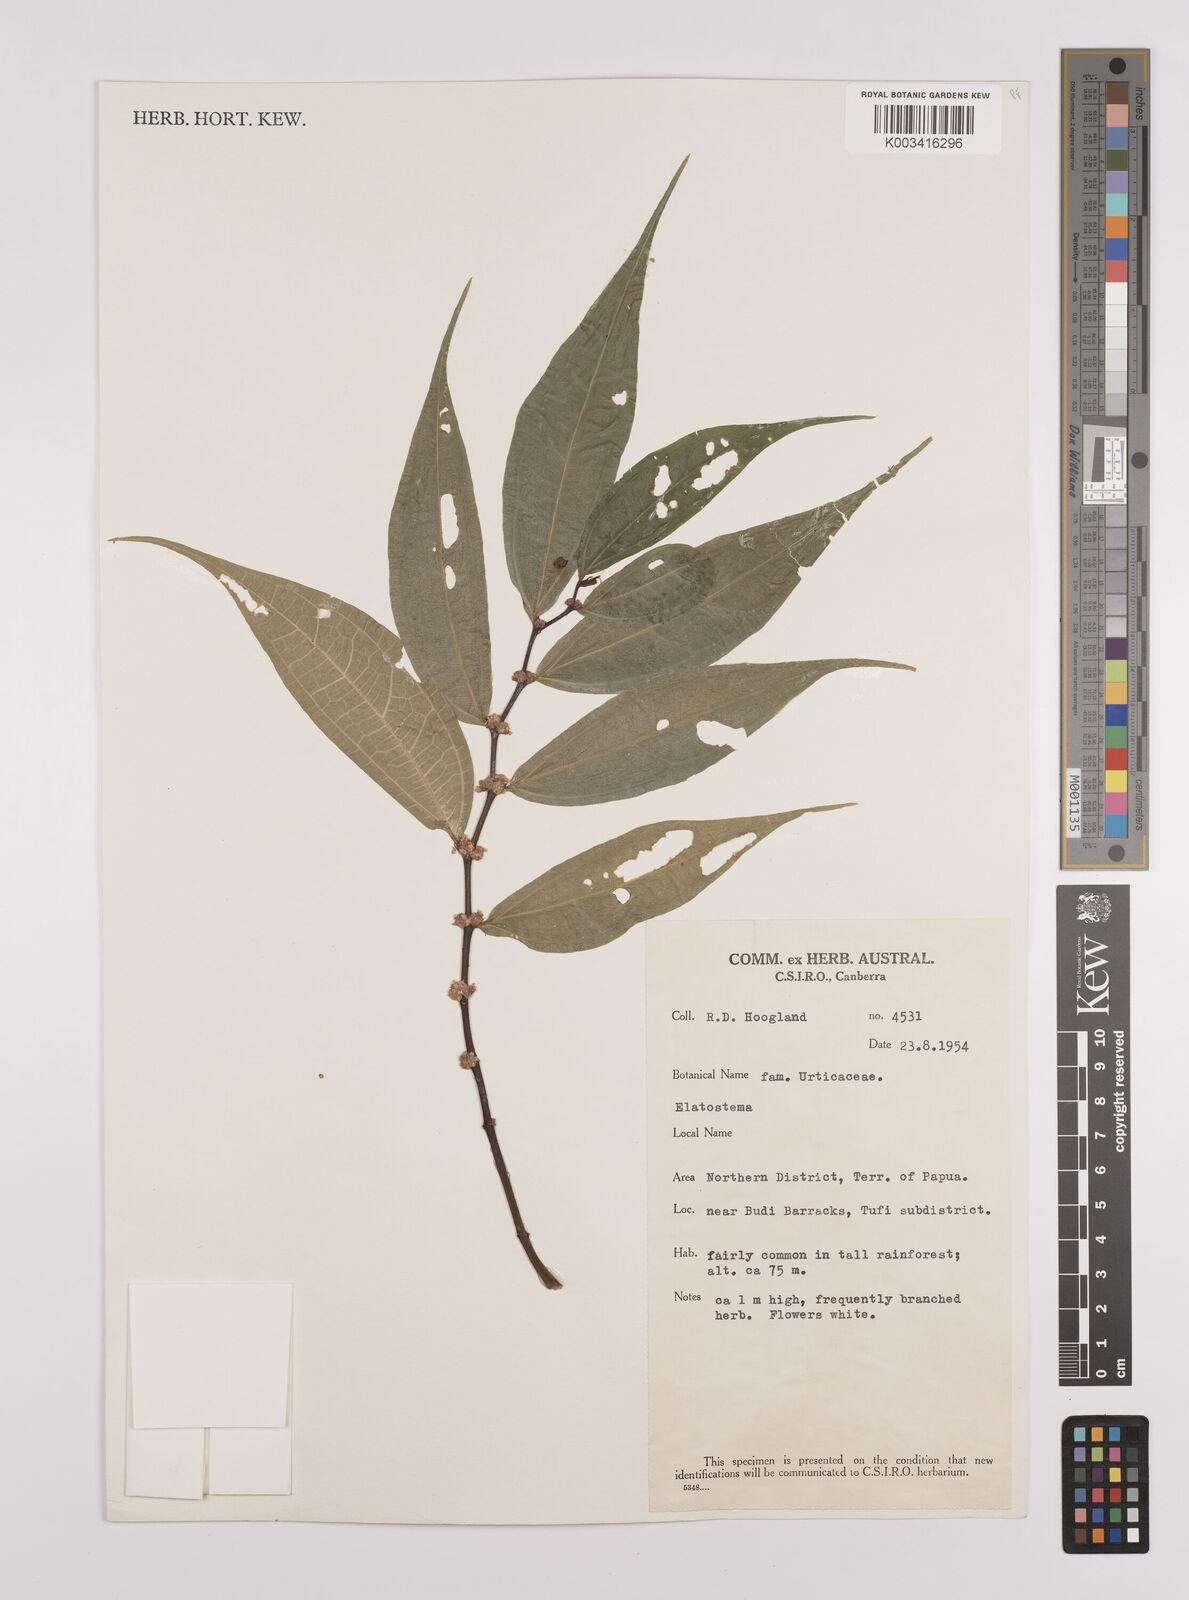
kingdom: Plantae
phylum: Tracheophyta
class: Magnoliopsida
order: Rosales
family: Urticaceae
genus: Elatostema
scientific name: Elatostema integrifolium
